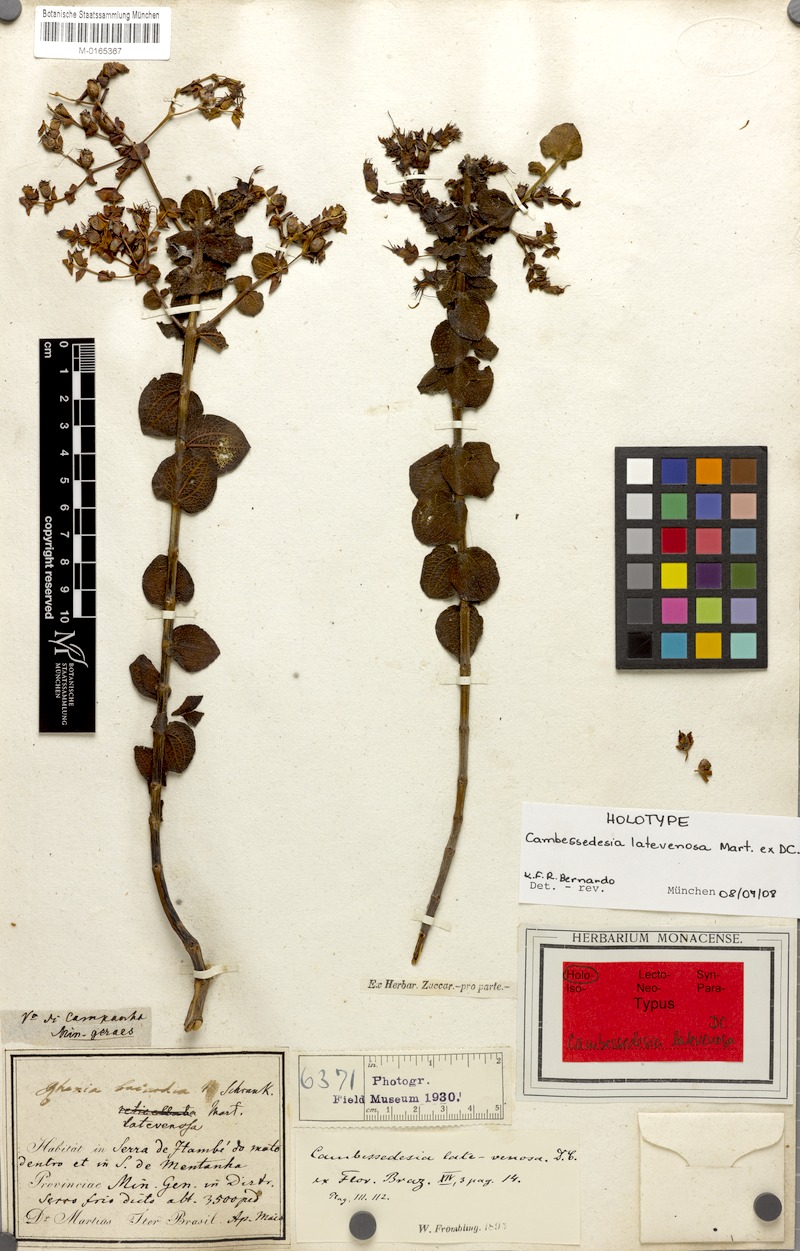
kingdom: Plantae
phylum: Tracheophyta
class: Magnoliopsida
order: Myrtales
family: Melastomataceae
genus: Cambessedesia
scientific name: Cambessedesia latevenosa
